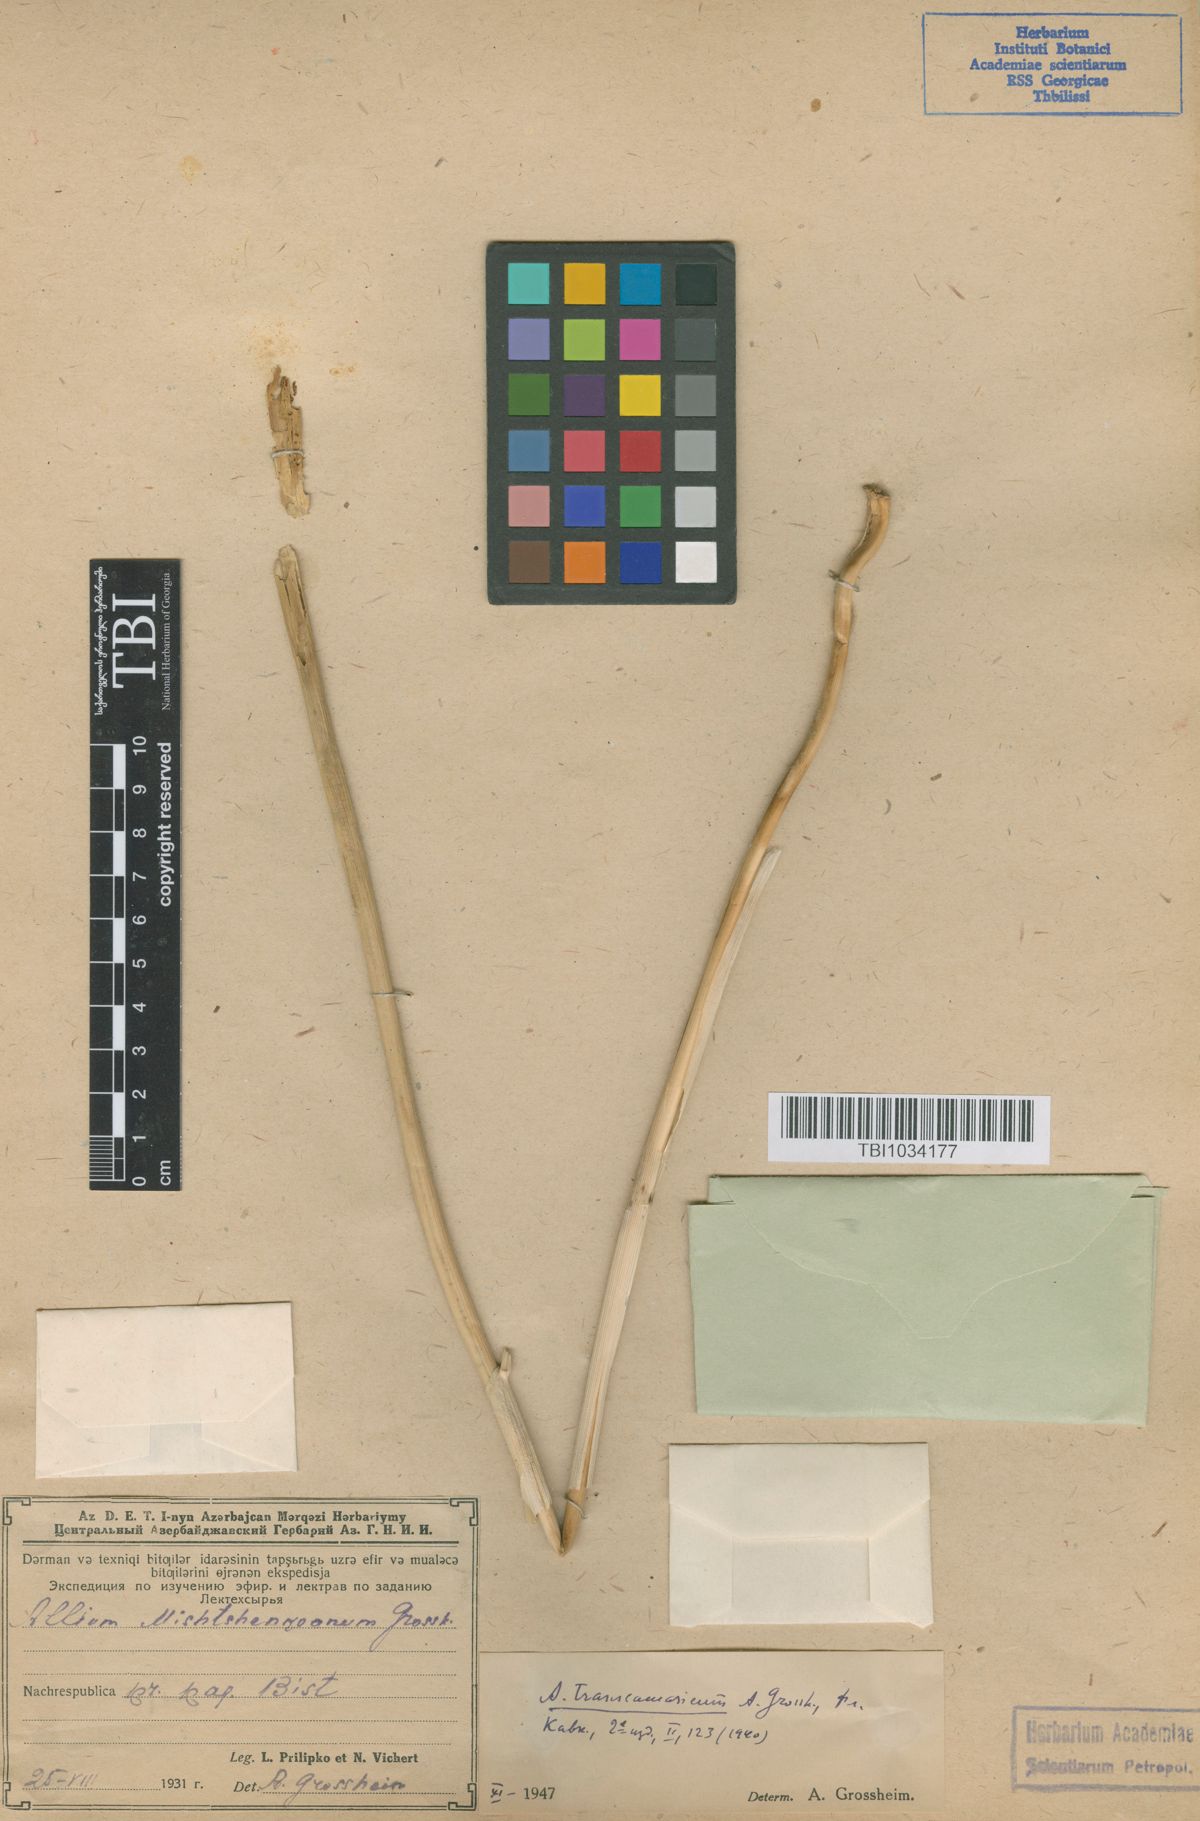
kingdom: Plantae
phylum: Tracheophyta
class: Liliopsida
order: Asparagales
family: Amaryllidaceae
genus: Allium
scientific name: Allium affine
